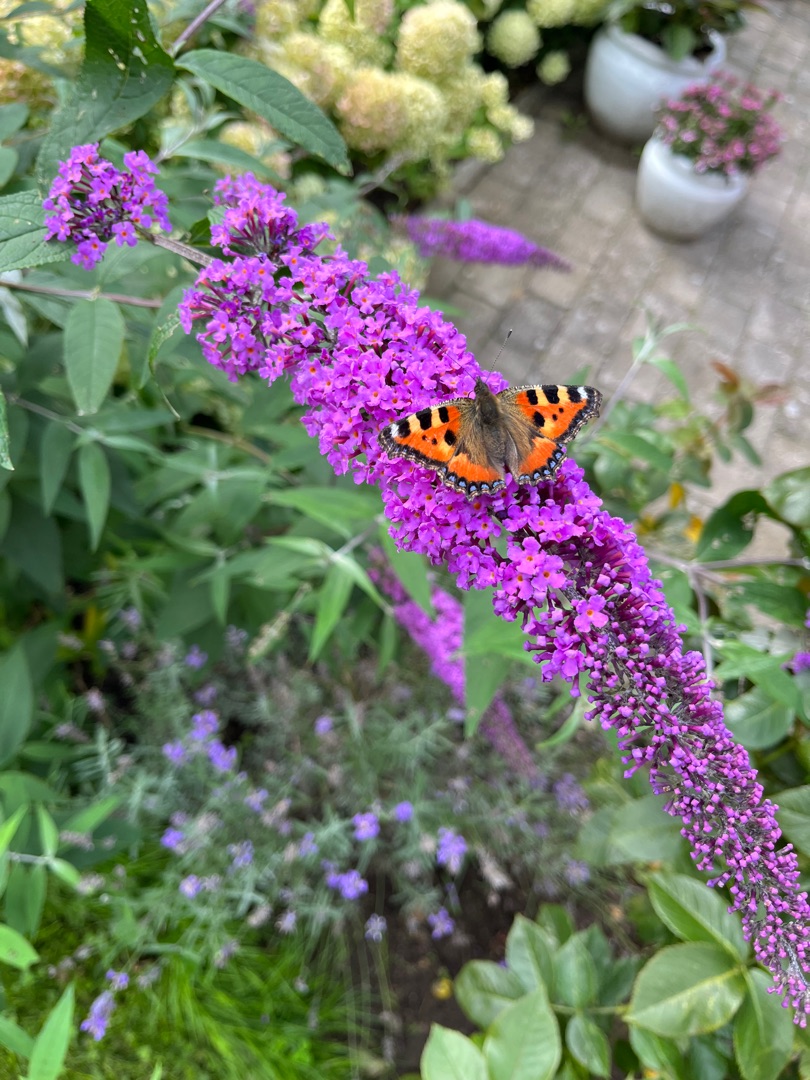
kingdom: Animalia
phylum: Arthropoda
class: Insecta
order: Lepidoptera
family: Nymphalidae
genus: Aglais
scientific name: Aglais urticae
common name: Nældens takvinge
